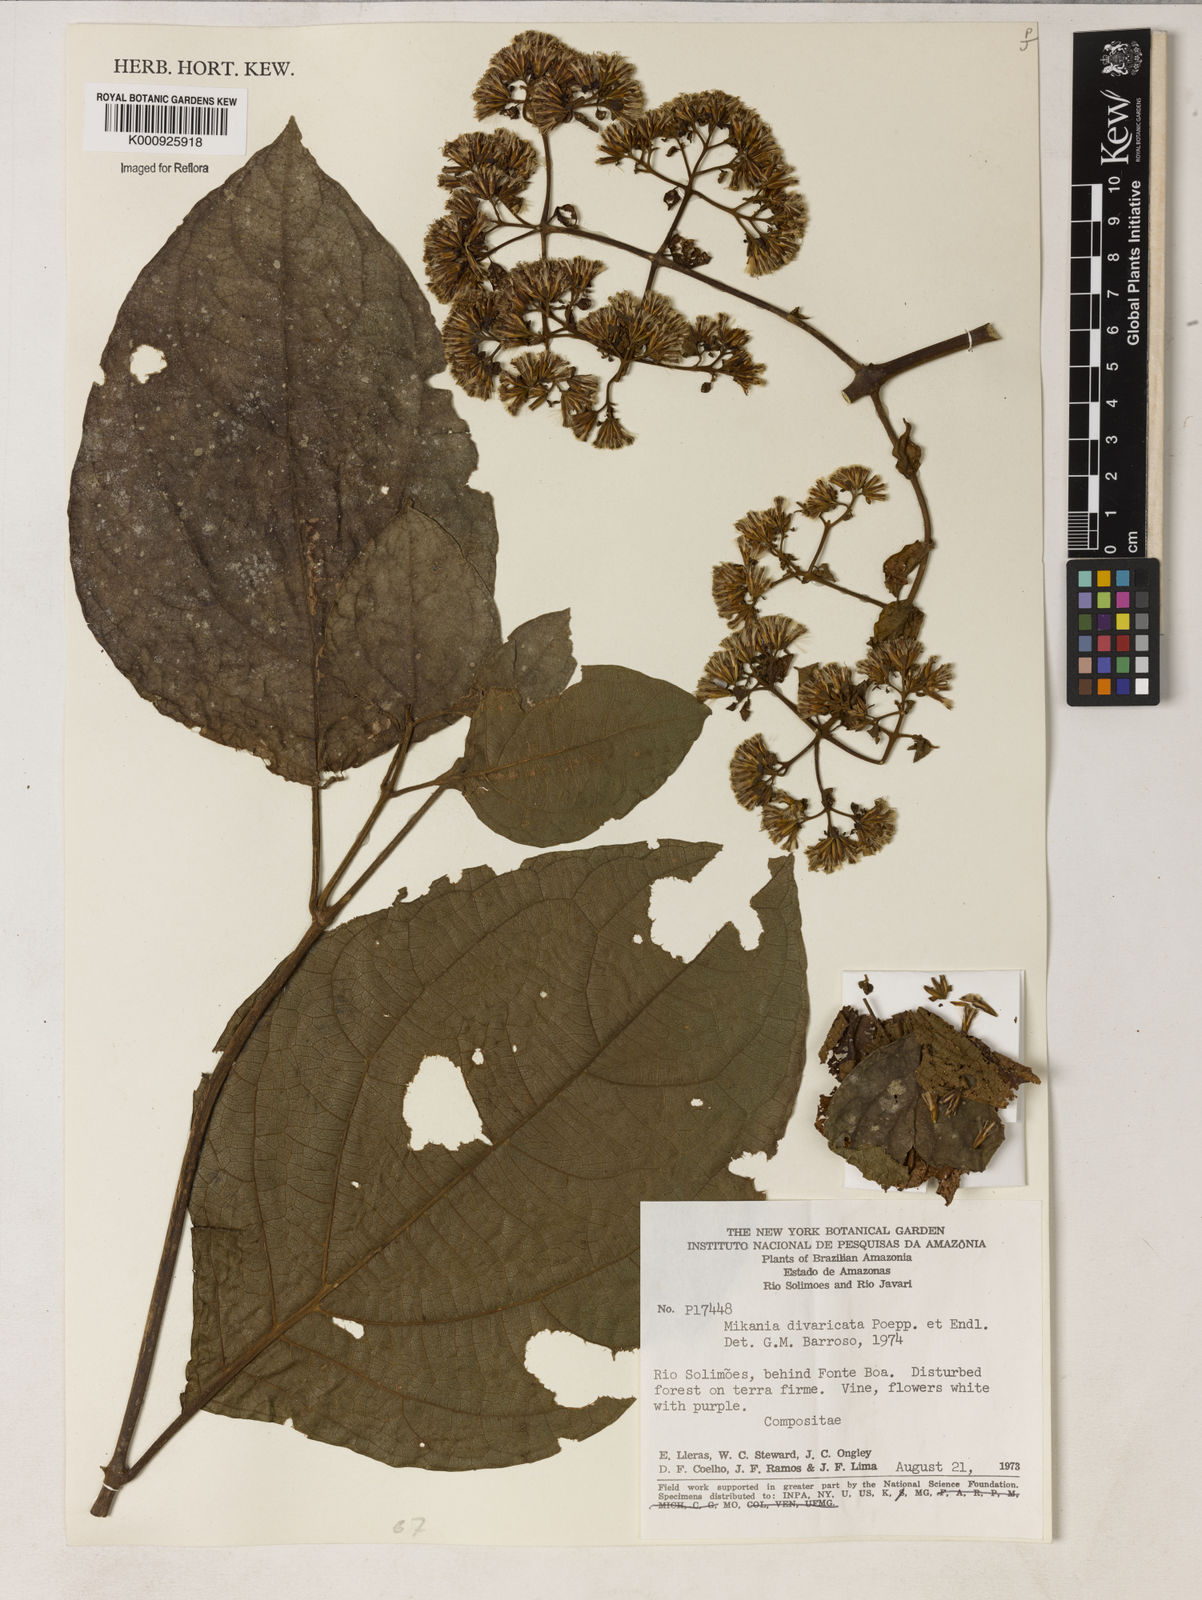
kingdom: Plantae
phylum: Tracheophyta
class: Magnoliopsida
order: Asterales
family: Asteraceae
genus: Mikania
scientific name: Mikania parviflora
